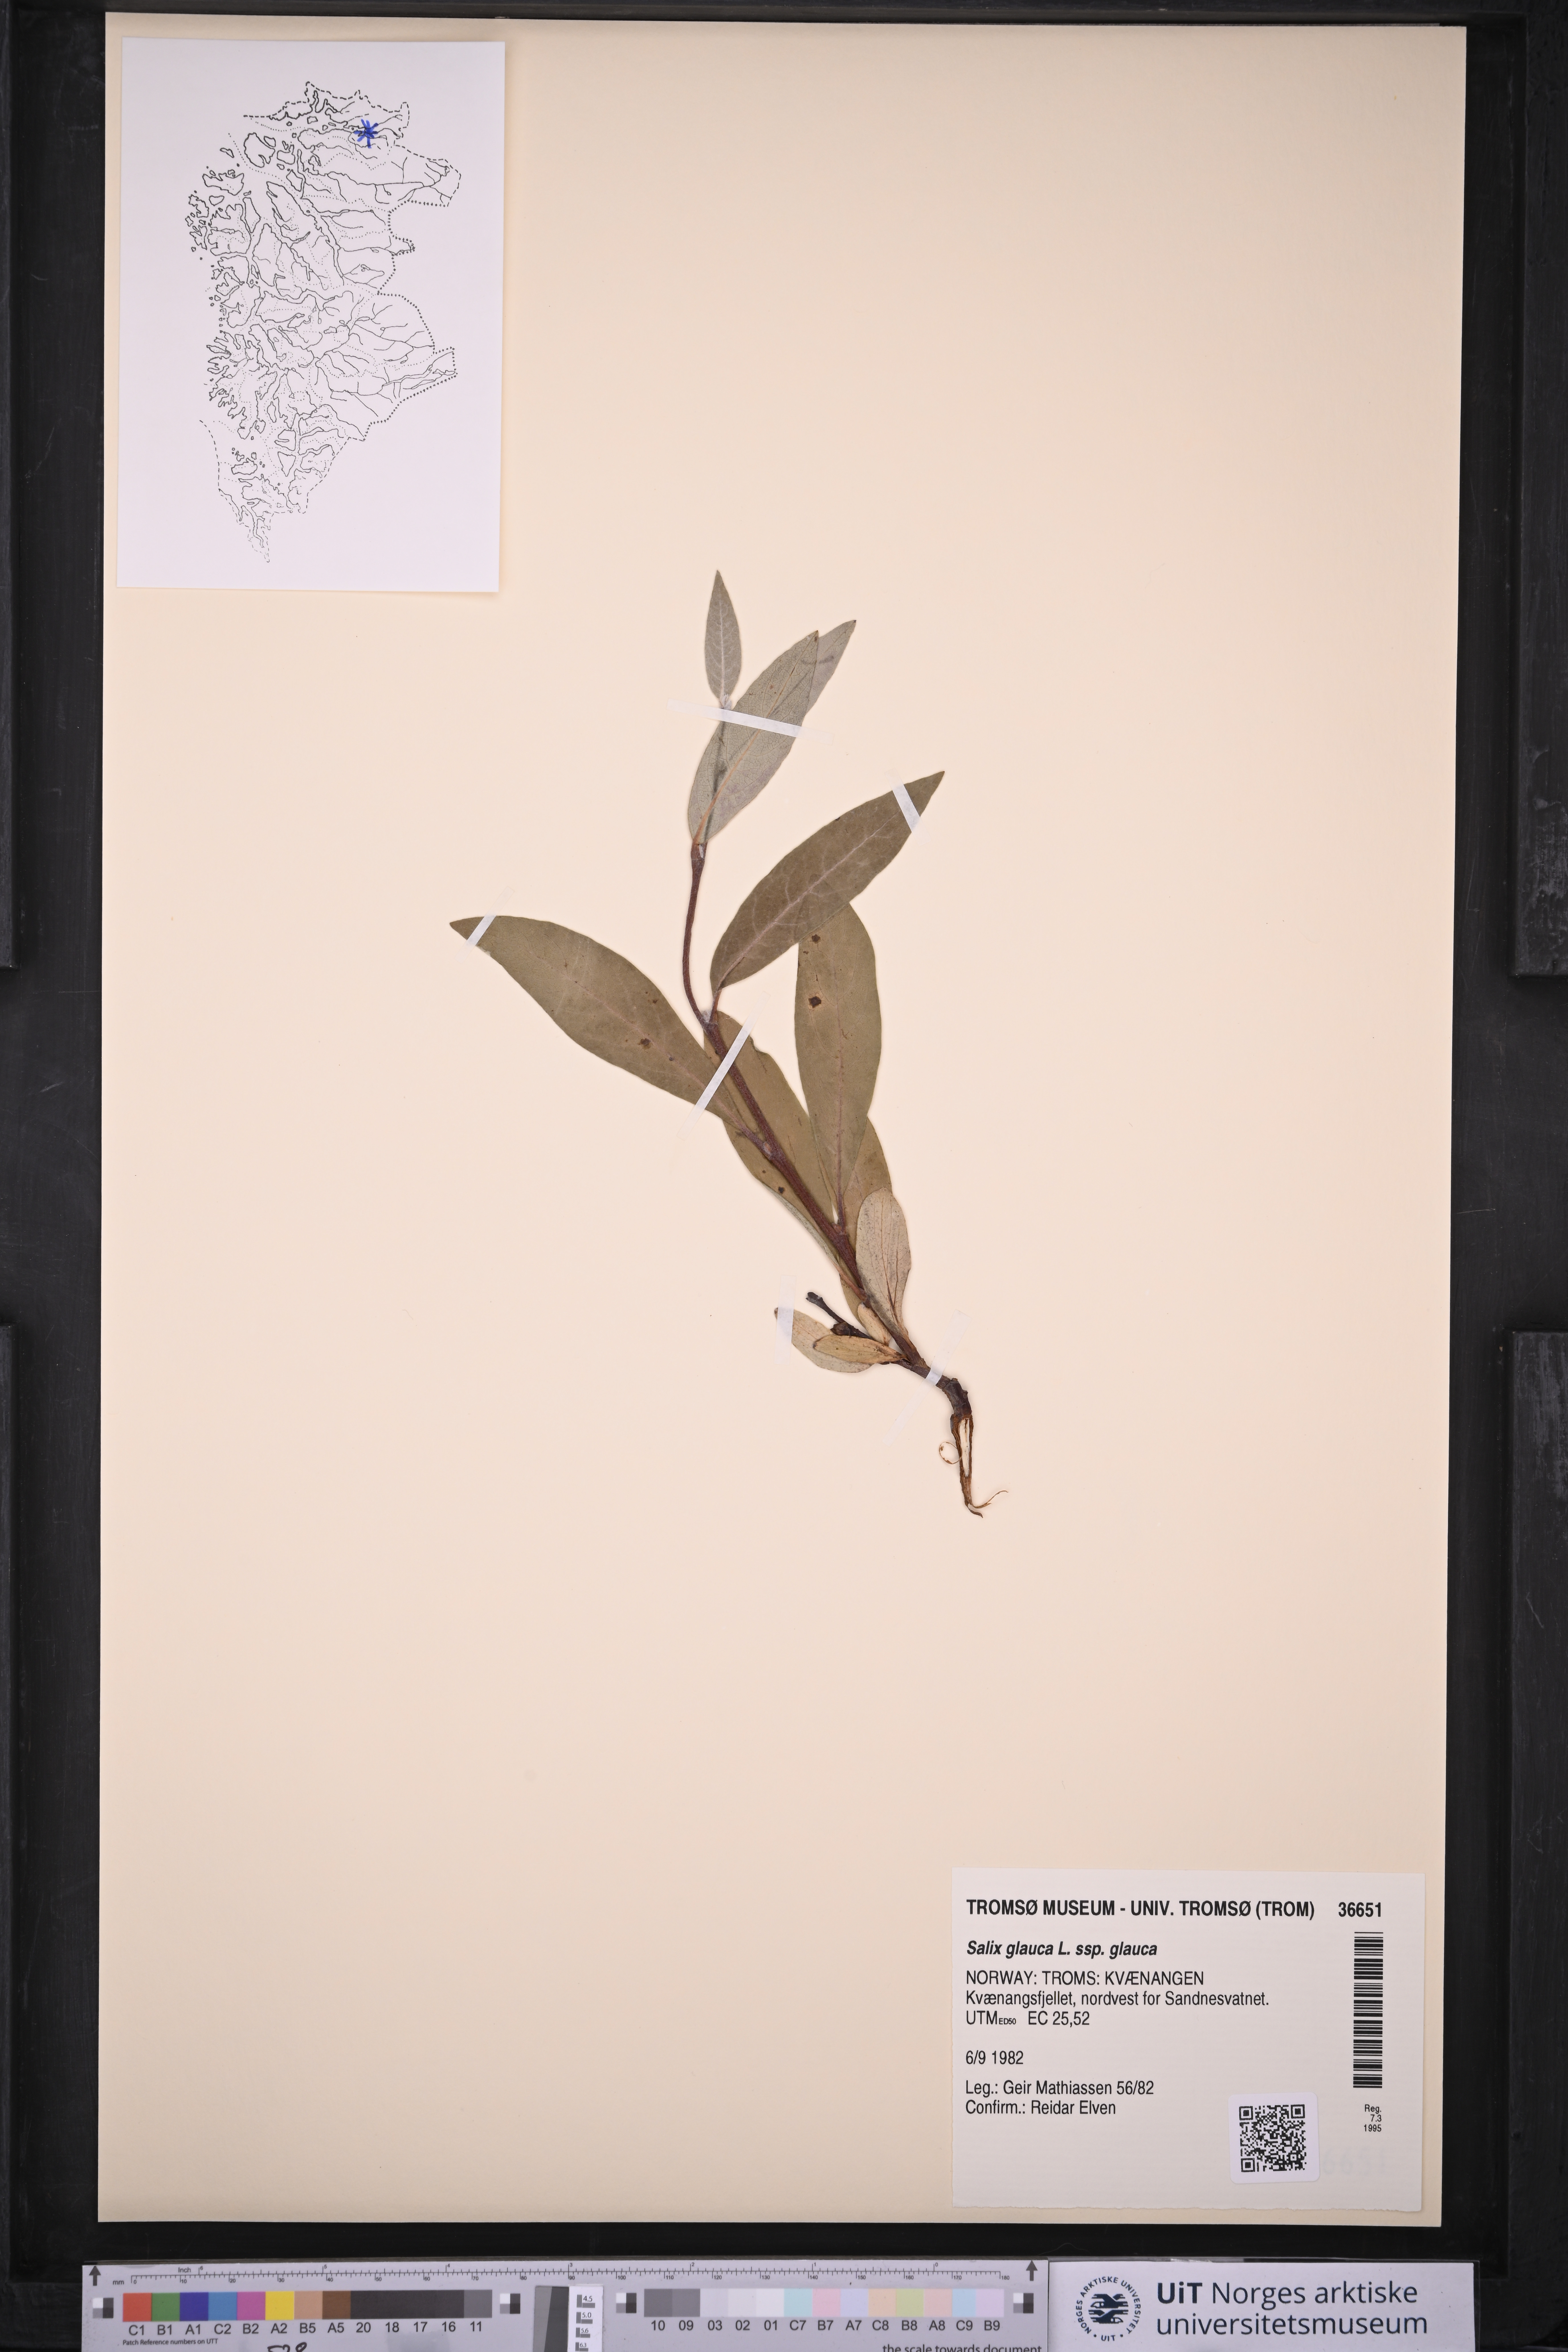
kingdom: Plantae
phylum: Tracheophyta
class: Magnoliopsida
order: Malpighiales
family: Salicaceae
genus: Salix
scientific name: Salix glauca
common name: Glaucous willow
